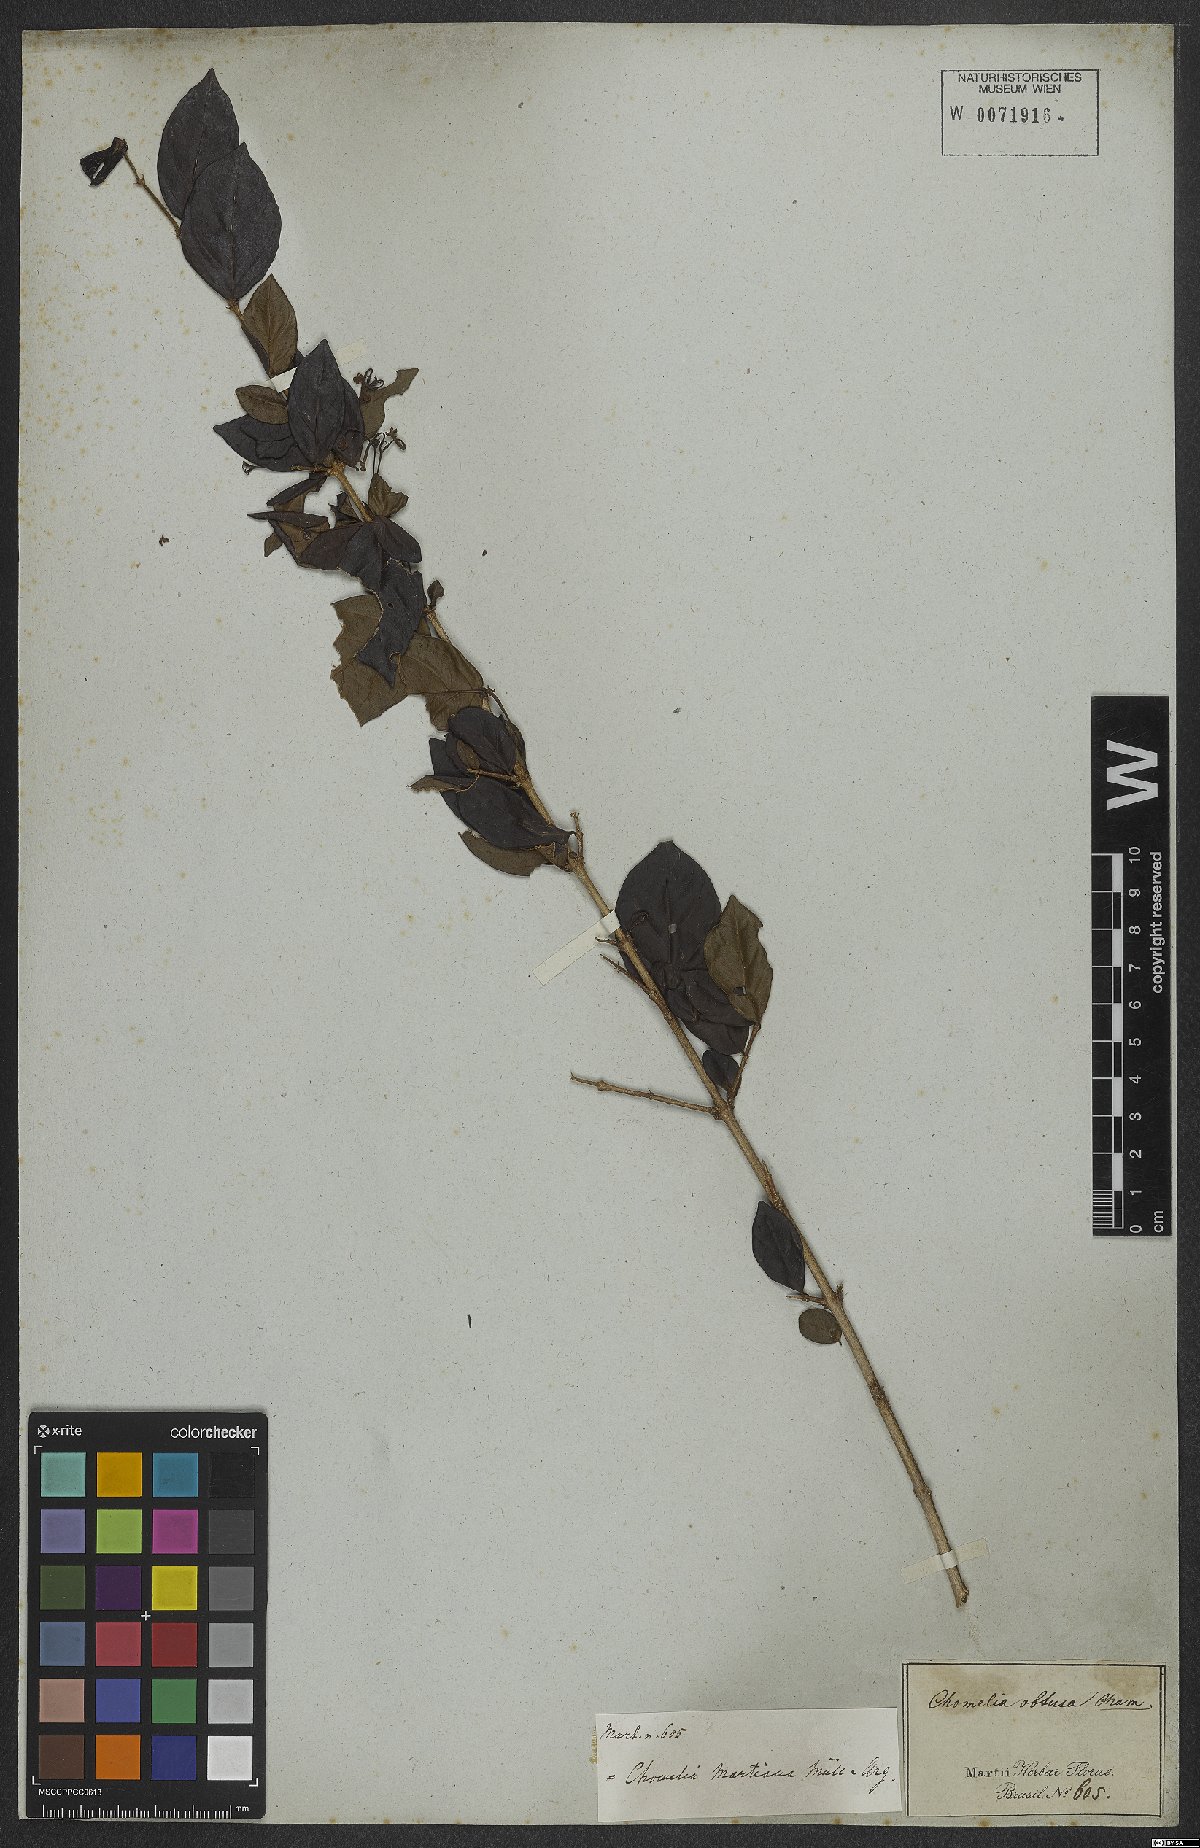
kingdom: Plantae
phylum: Tracheophyta
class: Magnoliopsida
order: Gentianales
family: Rubiaceae
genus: Chomelia
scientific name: Chomelia obtusa
